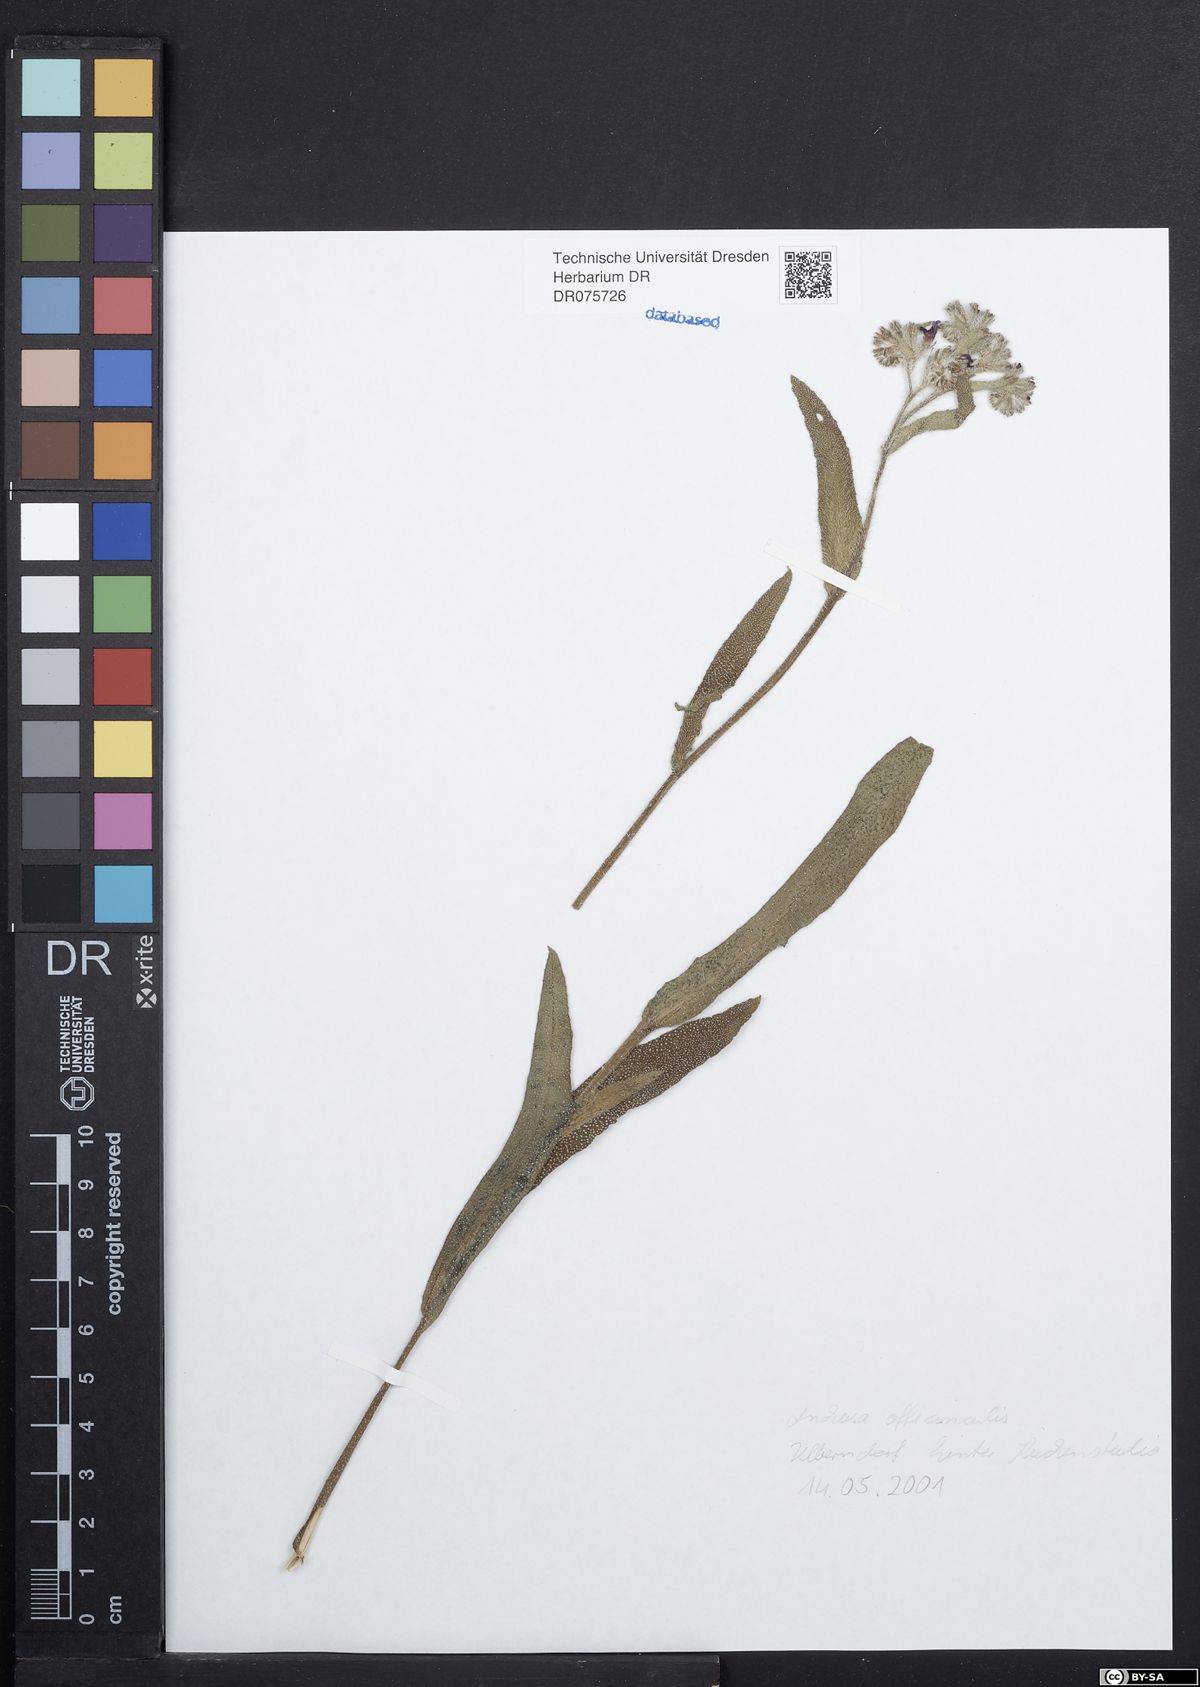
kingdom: Plantae
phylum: Tracheophyta
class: Magnoliopsida
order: Boraginales
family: Boraginaceae
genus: Anchusa
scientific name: Anchusa officinalis
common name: Alkanet
